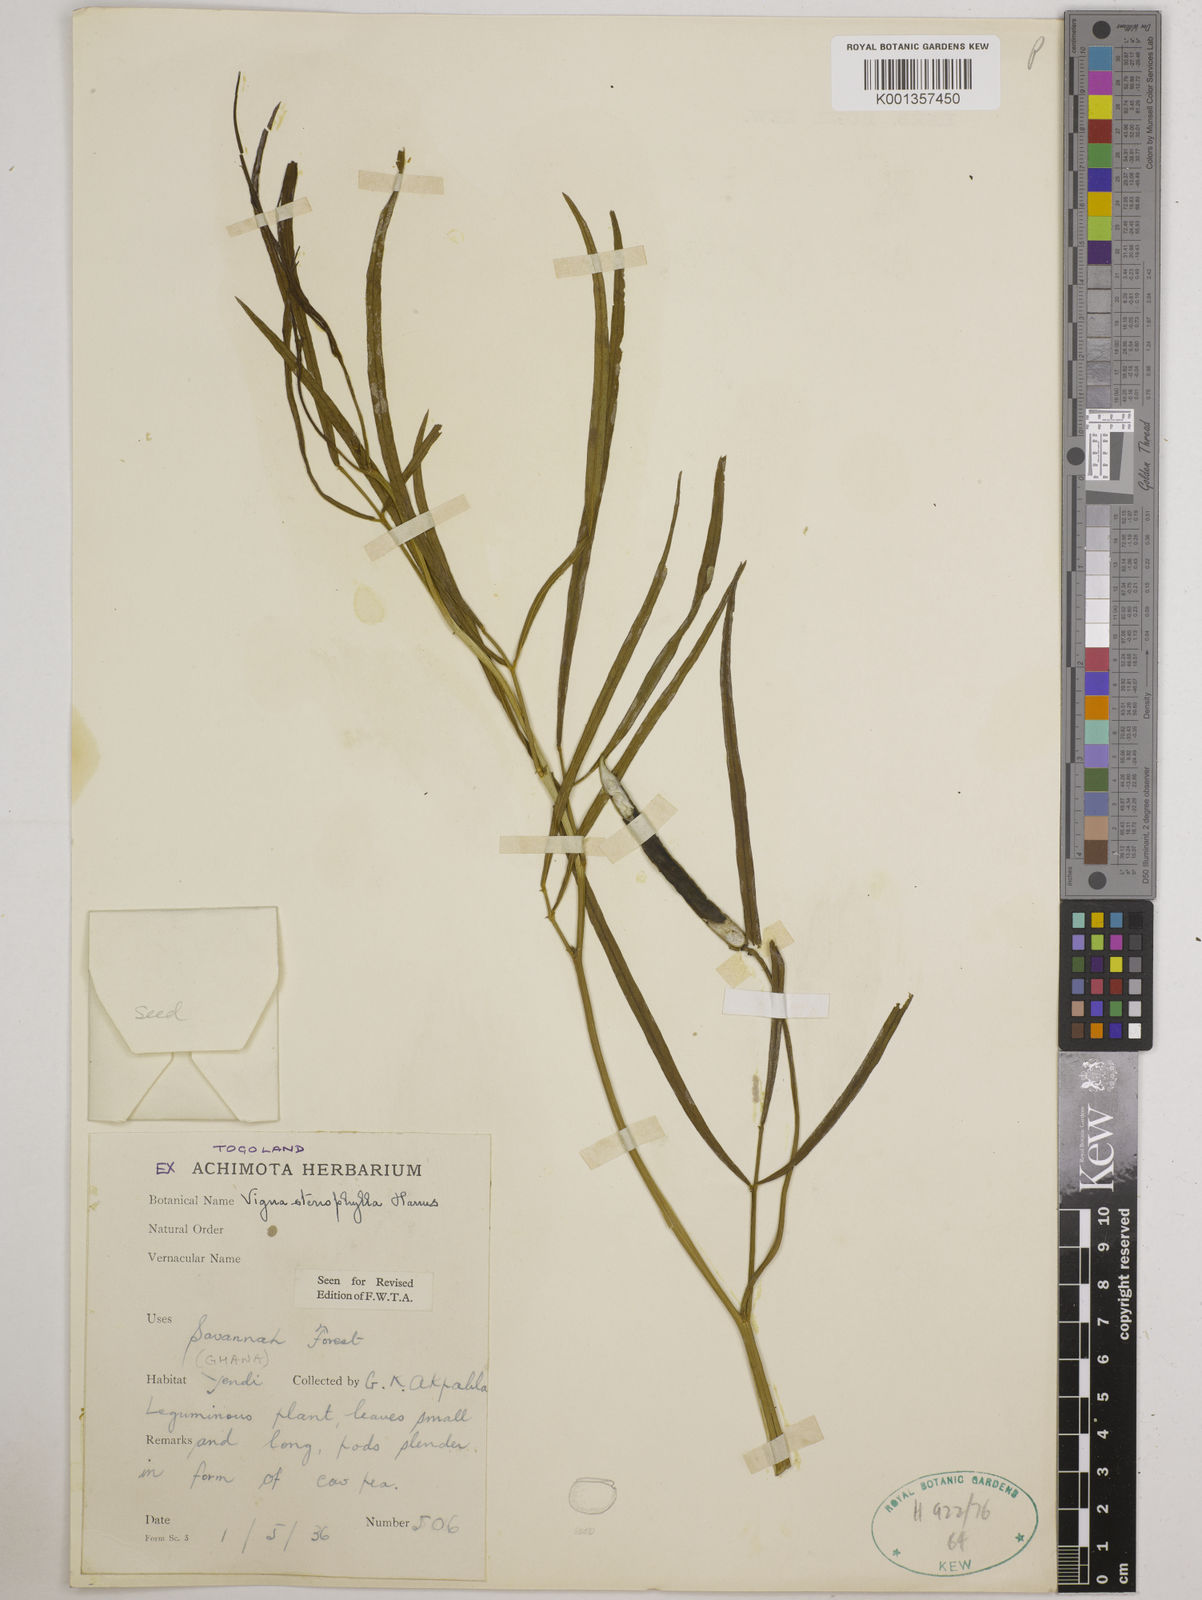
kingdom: Plantae
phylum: Tracheophyta
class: Magnoliopsida
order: Fabales
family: Fabaceae
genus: Vigna
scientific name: Vigna
